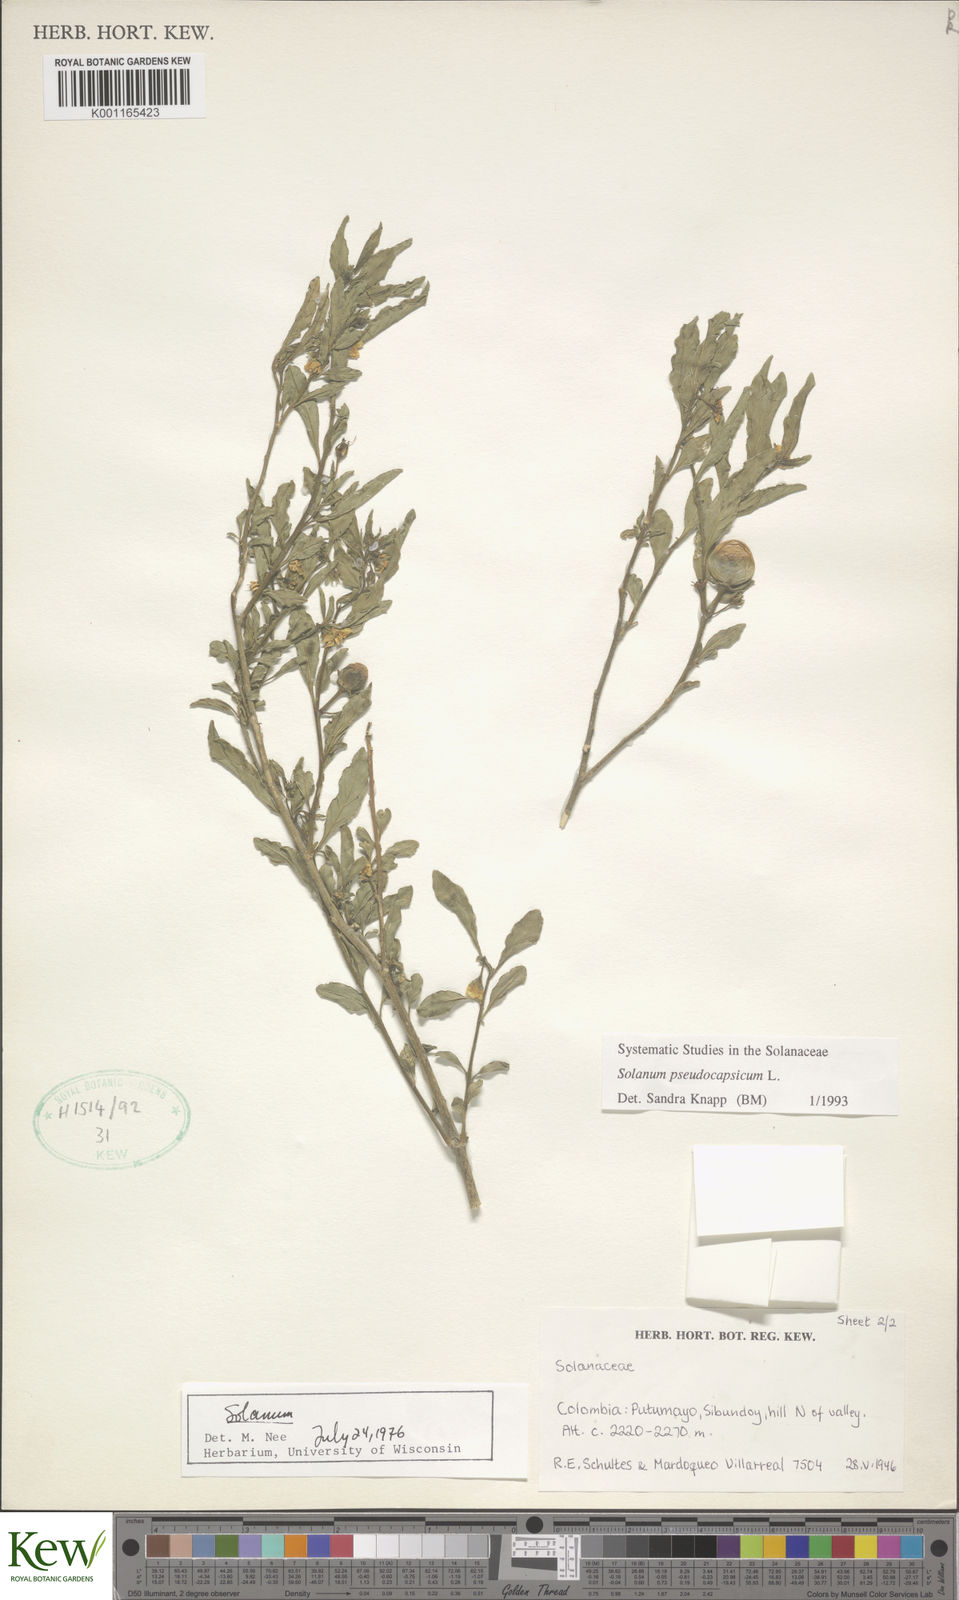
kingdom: Plantae
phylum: Tracheophyta
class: Magnoliopsida
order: Solanales
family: Solanaceae
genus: Solanum
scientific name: Solanum pseudocapsicum
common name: Jerusalem cherry
